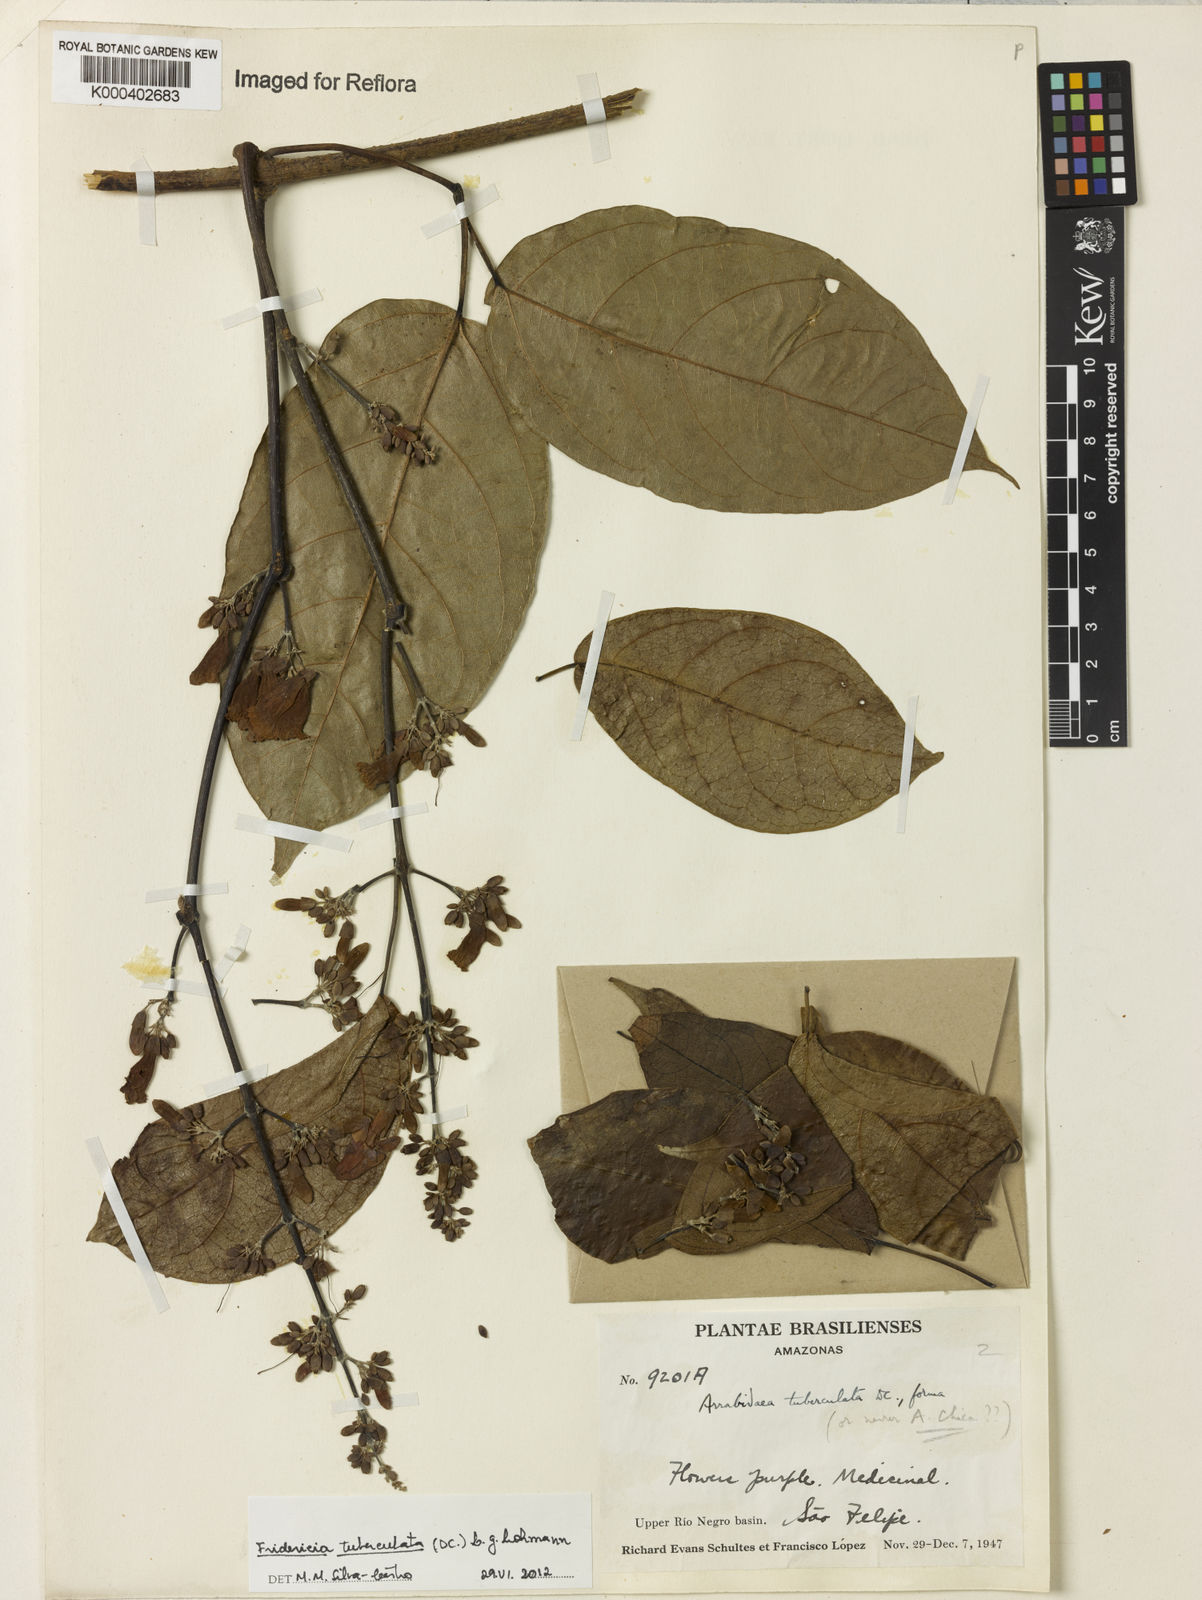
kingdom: Plantae
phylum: Tracheophyta
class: Magnoliopsida
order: Lamiales
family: Bignoniaceae
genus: Fridericia
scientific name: Fridericia tuberculata
